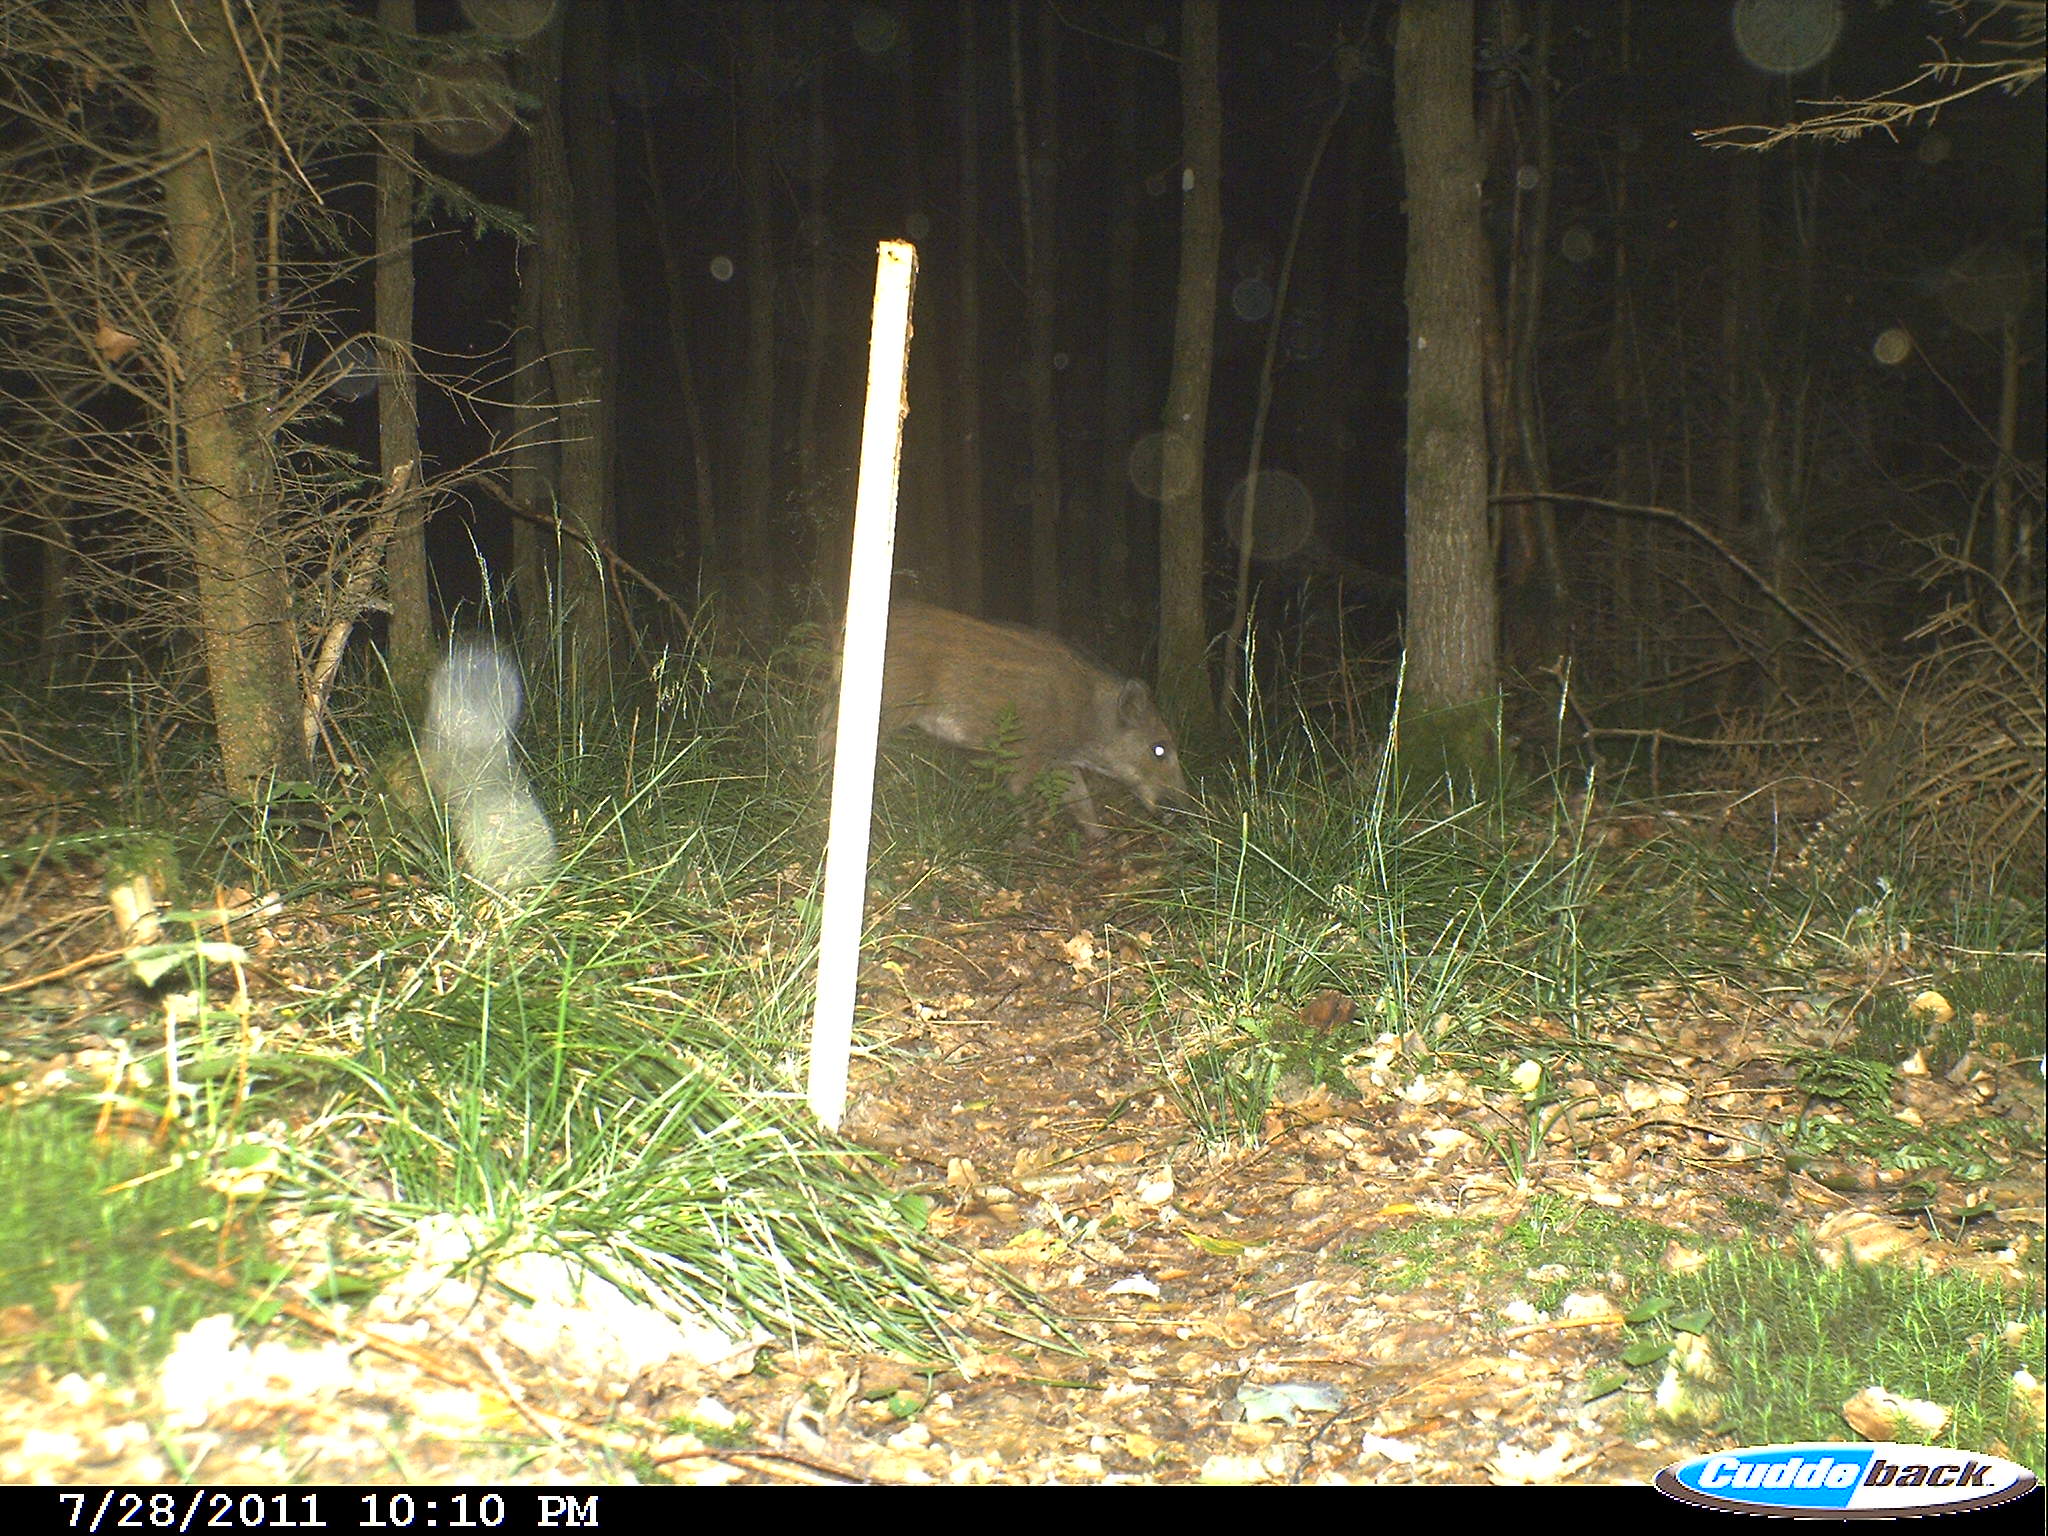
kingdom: Animalia
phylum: Chordata
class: Mammalia
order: Artiodactyla
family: Suidae
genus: Sus
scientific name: Sus scrofa
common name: Wild boar
